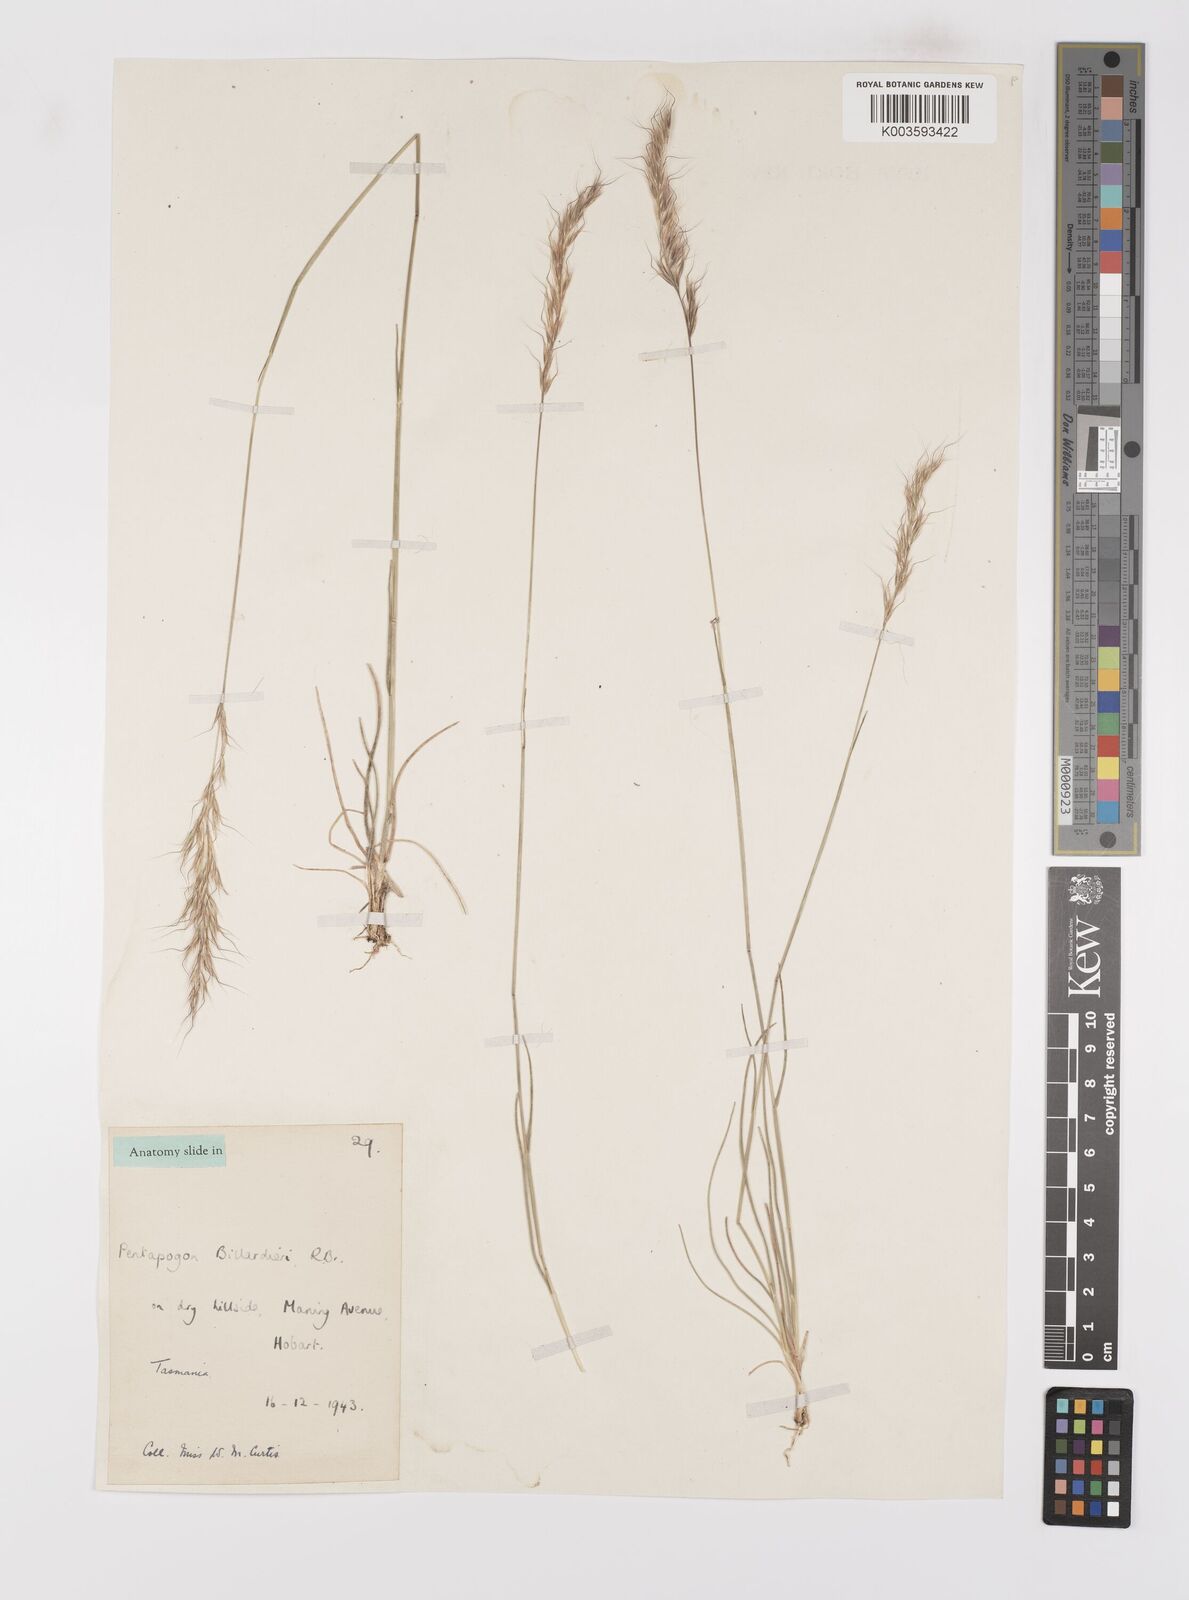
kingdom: Plantae
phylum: Tracheophyta
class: Liliopsida
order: Poales
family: Poaceae
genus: Pentapogon
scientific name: Pentapogon quadrifidus
